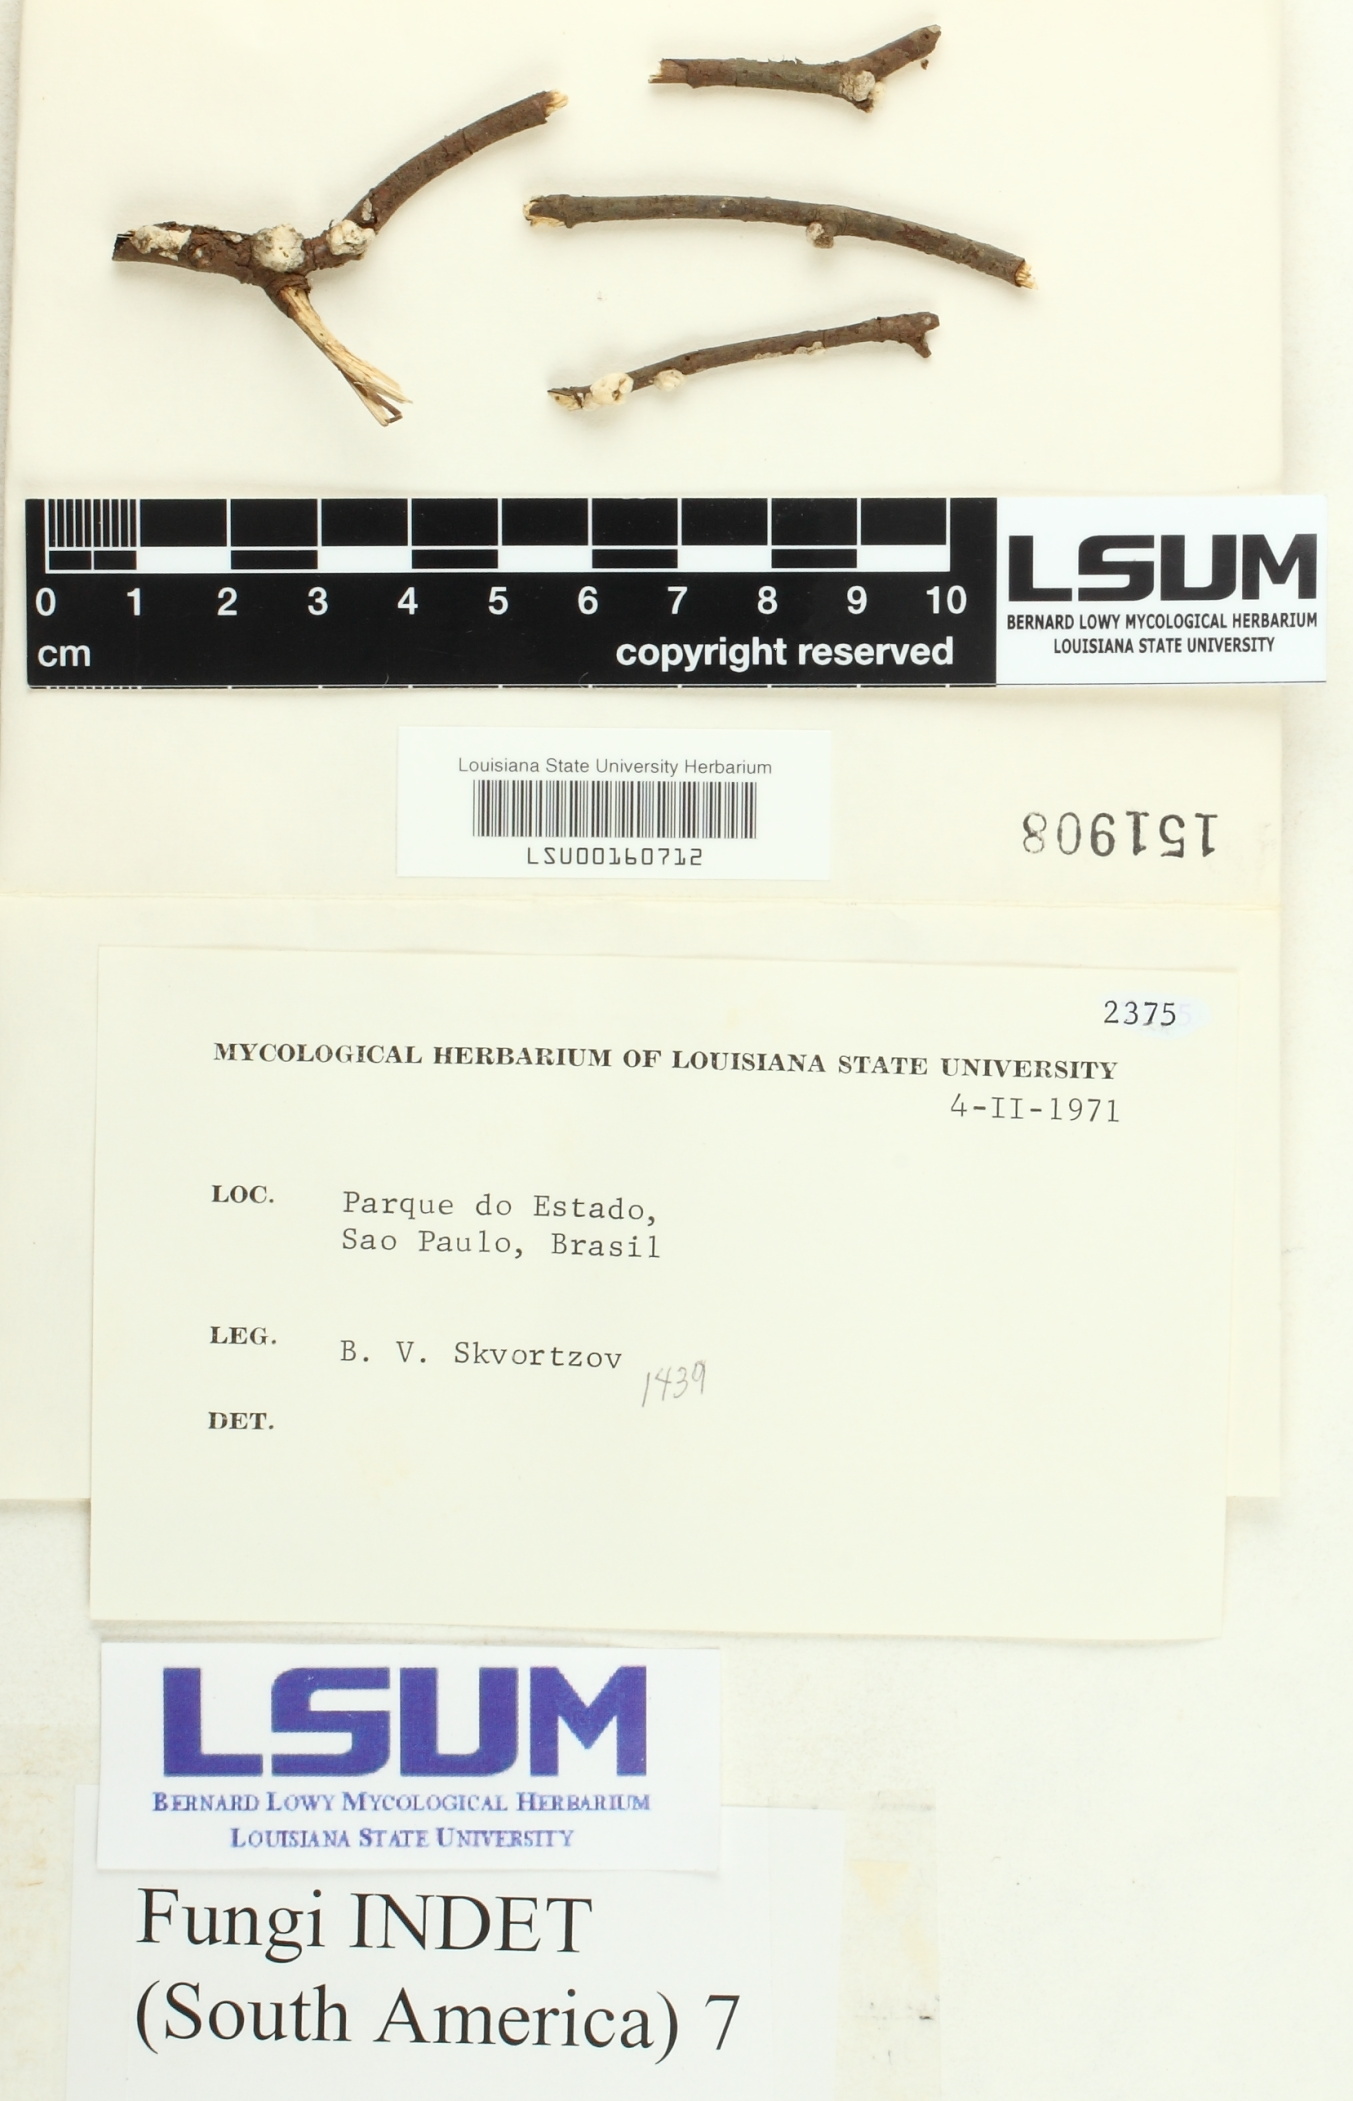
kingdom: Fungi
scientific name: Fungi
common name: Fungi
